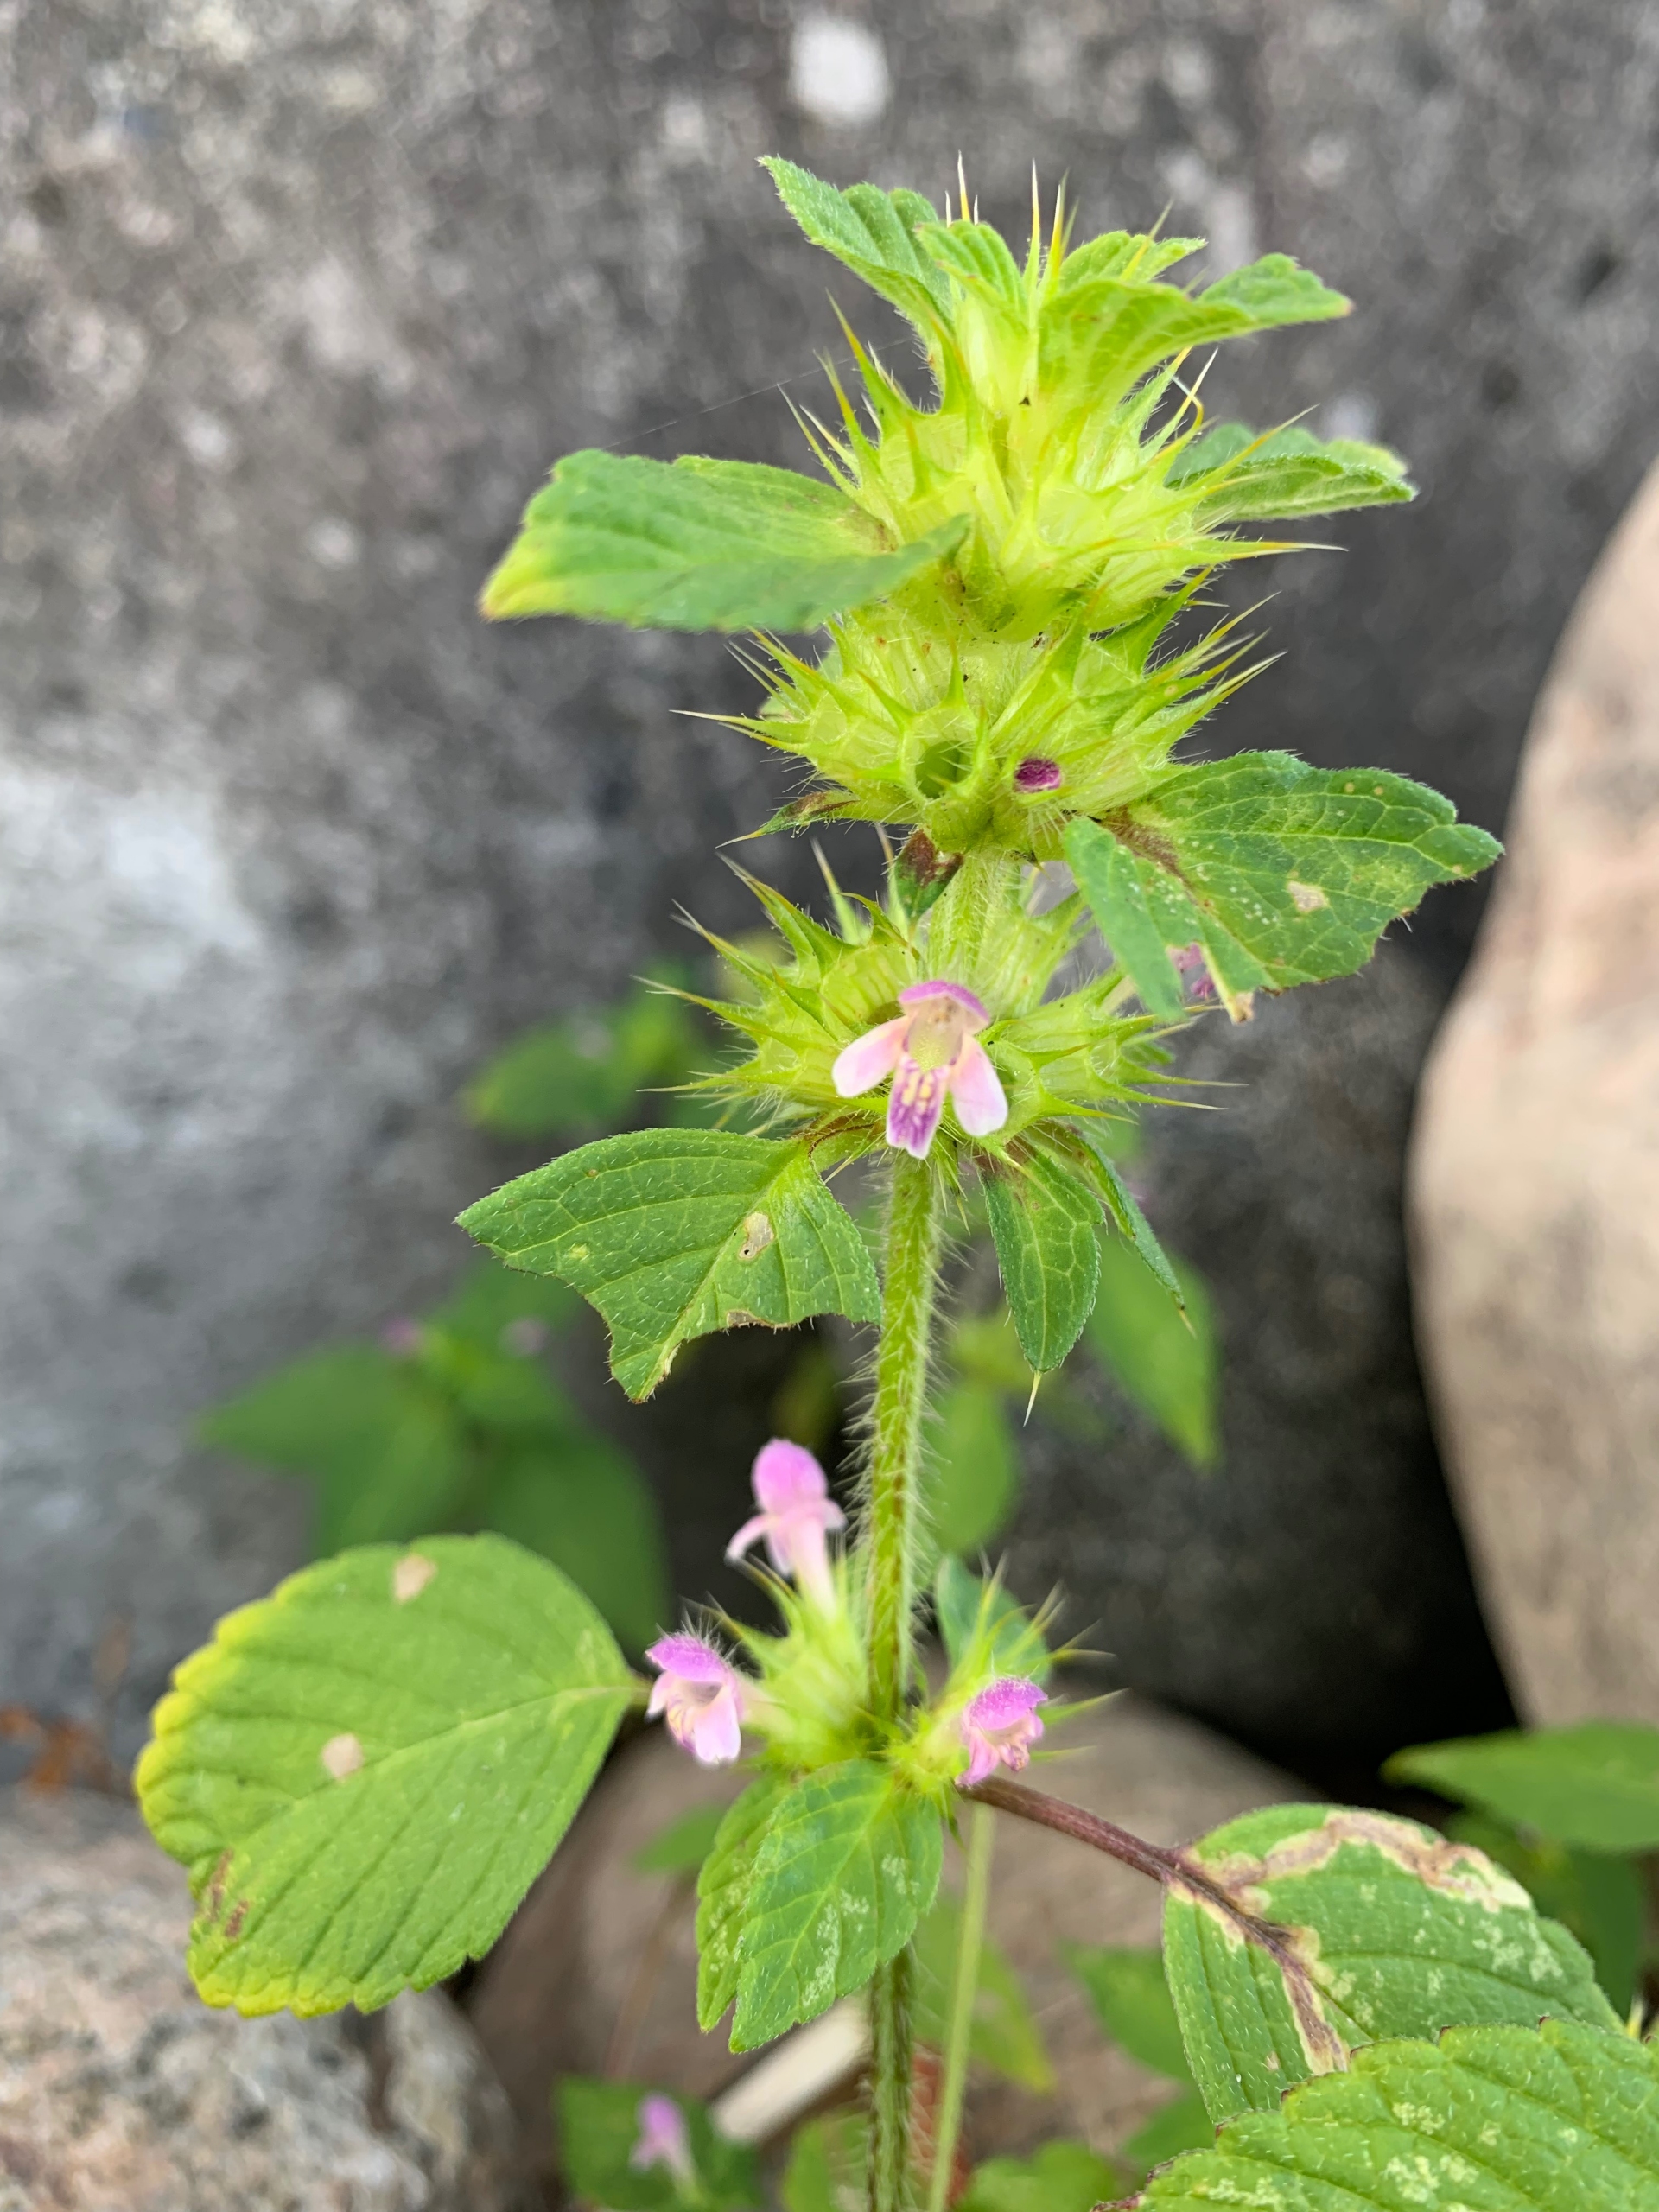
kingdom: Plantae
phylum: Tracheophyta
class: Magnoliopsida
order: Lamiales
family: Lamiaceae
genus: Galeopsis
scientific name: Galeopsis bifida
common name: Skov-hanekro
